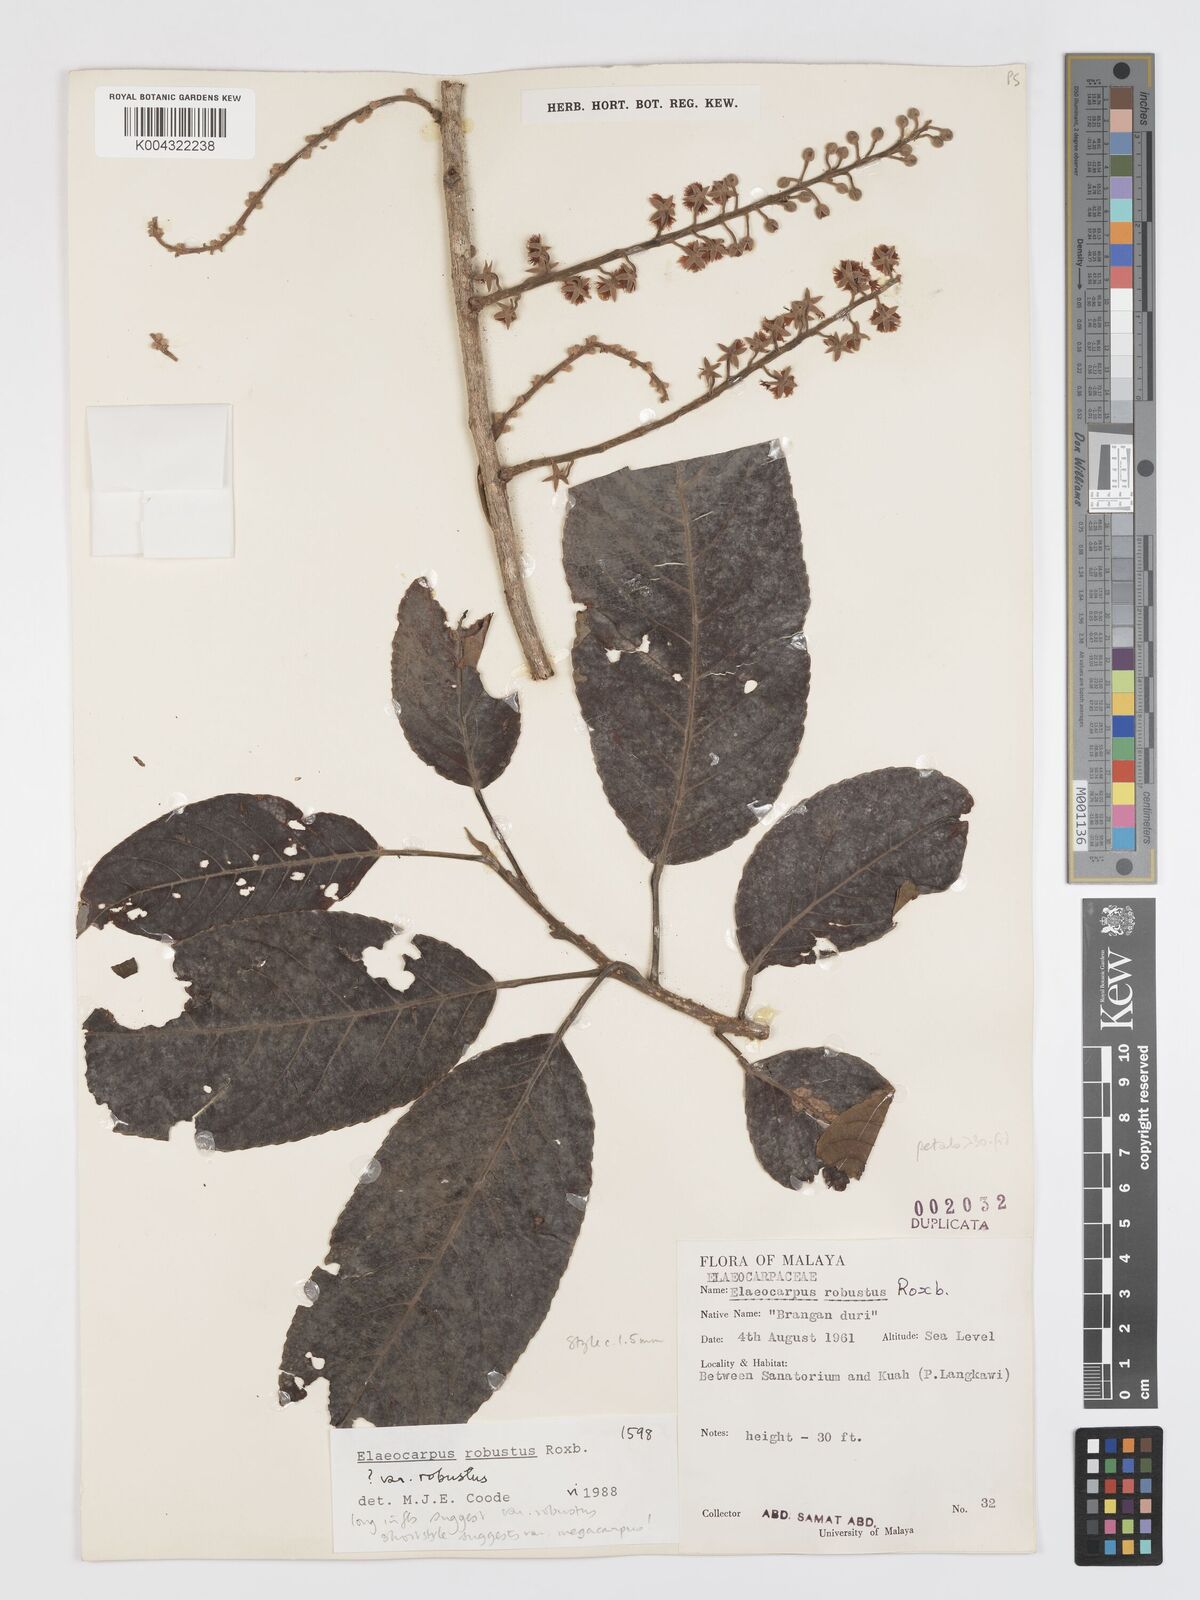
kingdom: Plantae
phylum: Tracheophyta
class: Magnoliopsida
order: Oxalidales
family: Elaeocarpaceae
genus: Elaeocarpus
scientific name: Elaeocarpus robustus
